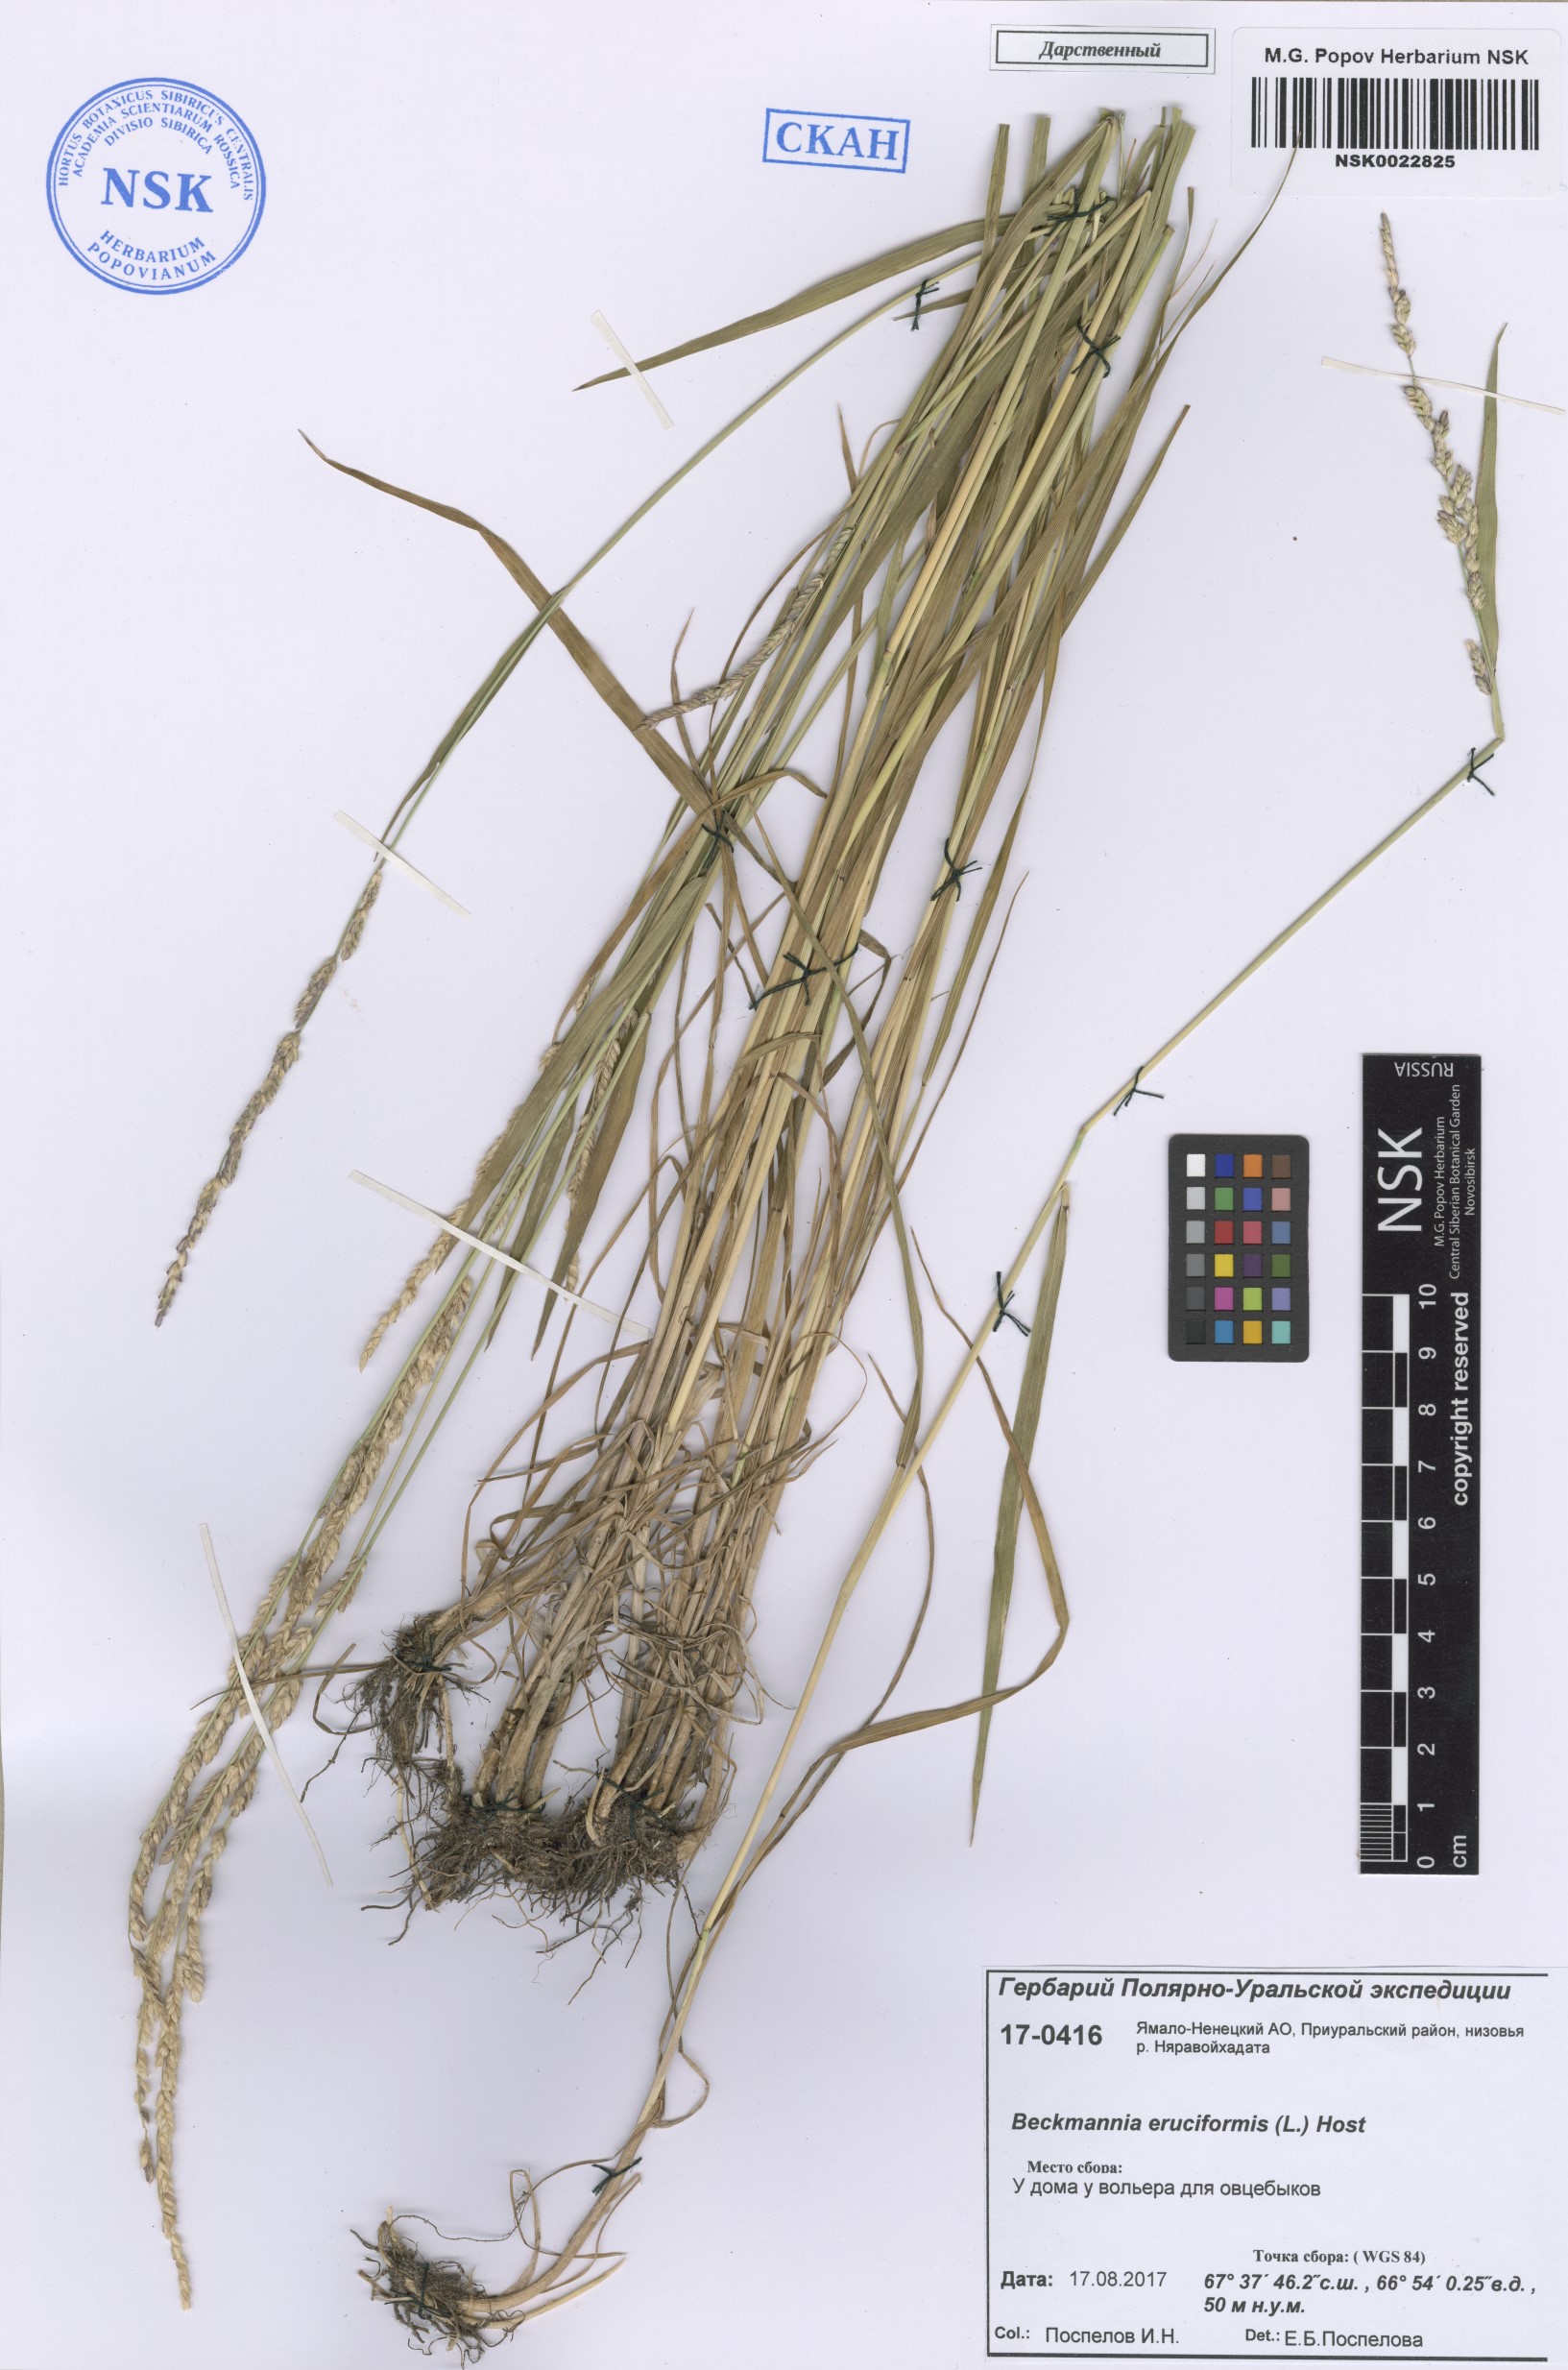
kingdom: Plantae
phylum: Tracheophyta
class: Liliopsida
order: Poales
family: Poaceae
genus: Beckmannia
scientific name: Beckmannia eruciformis
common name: European slough-grass
